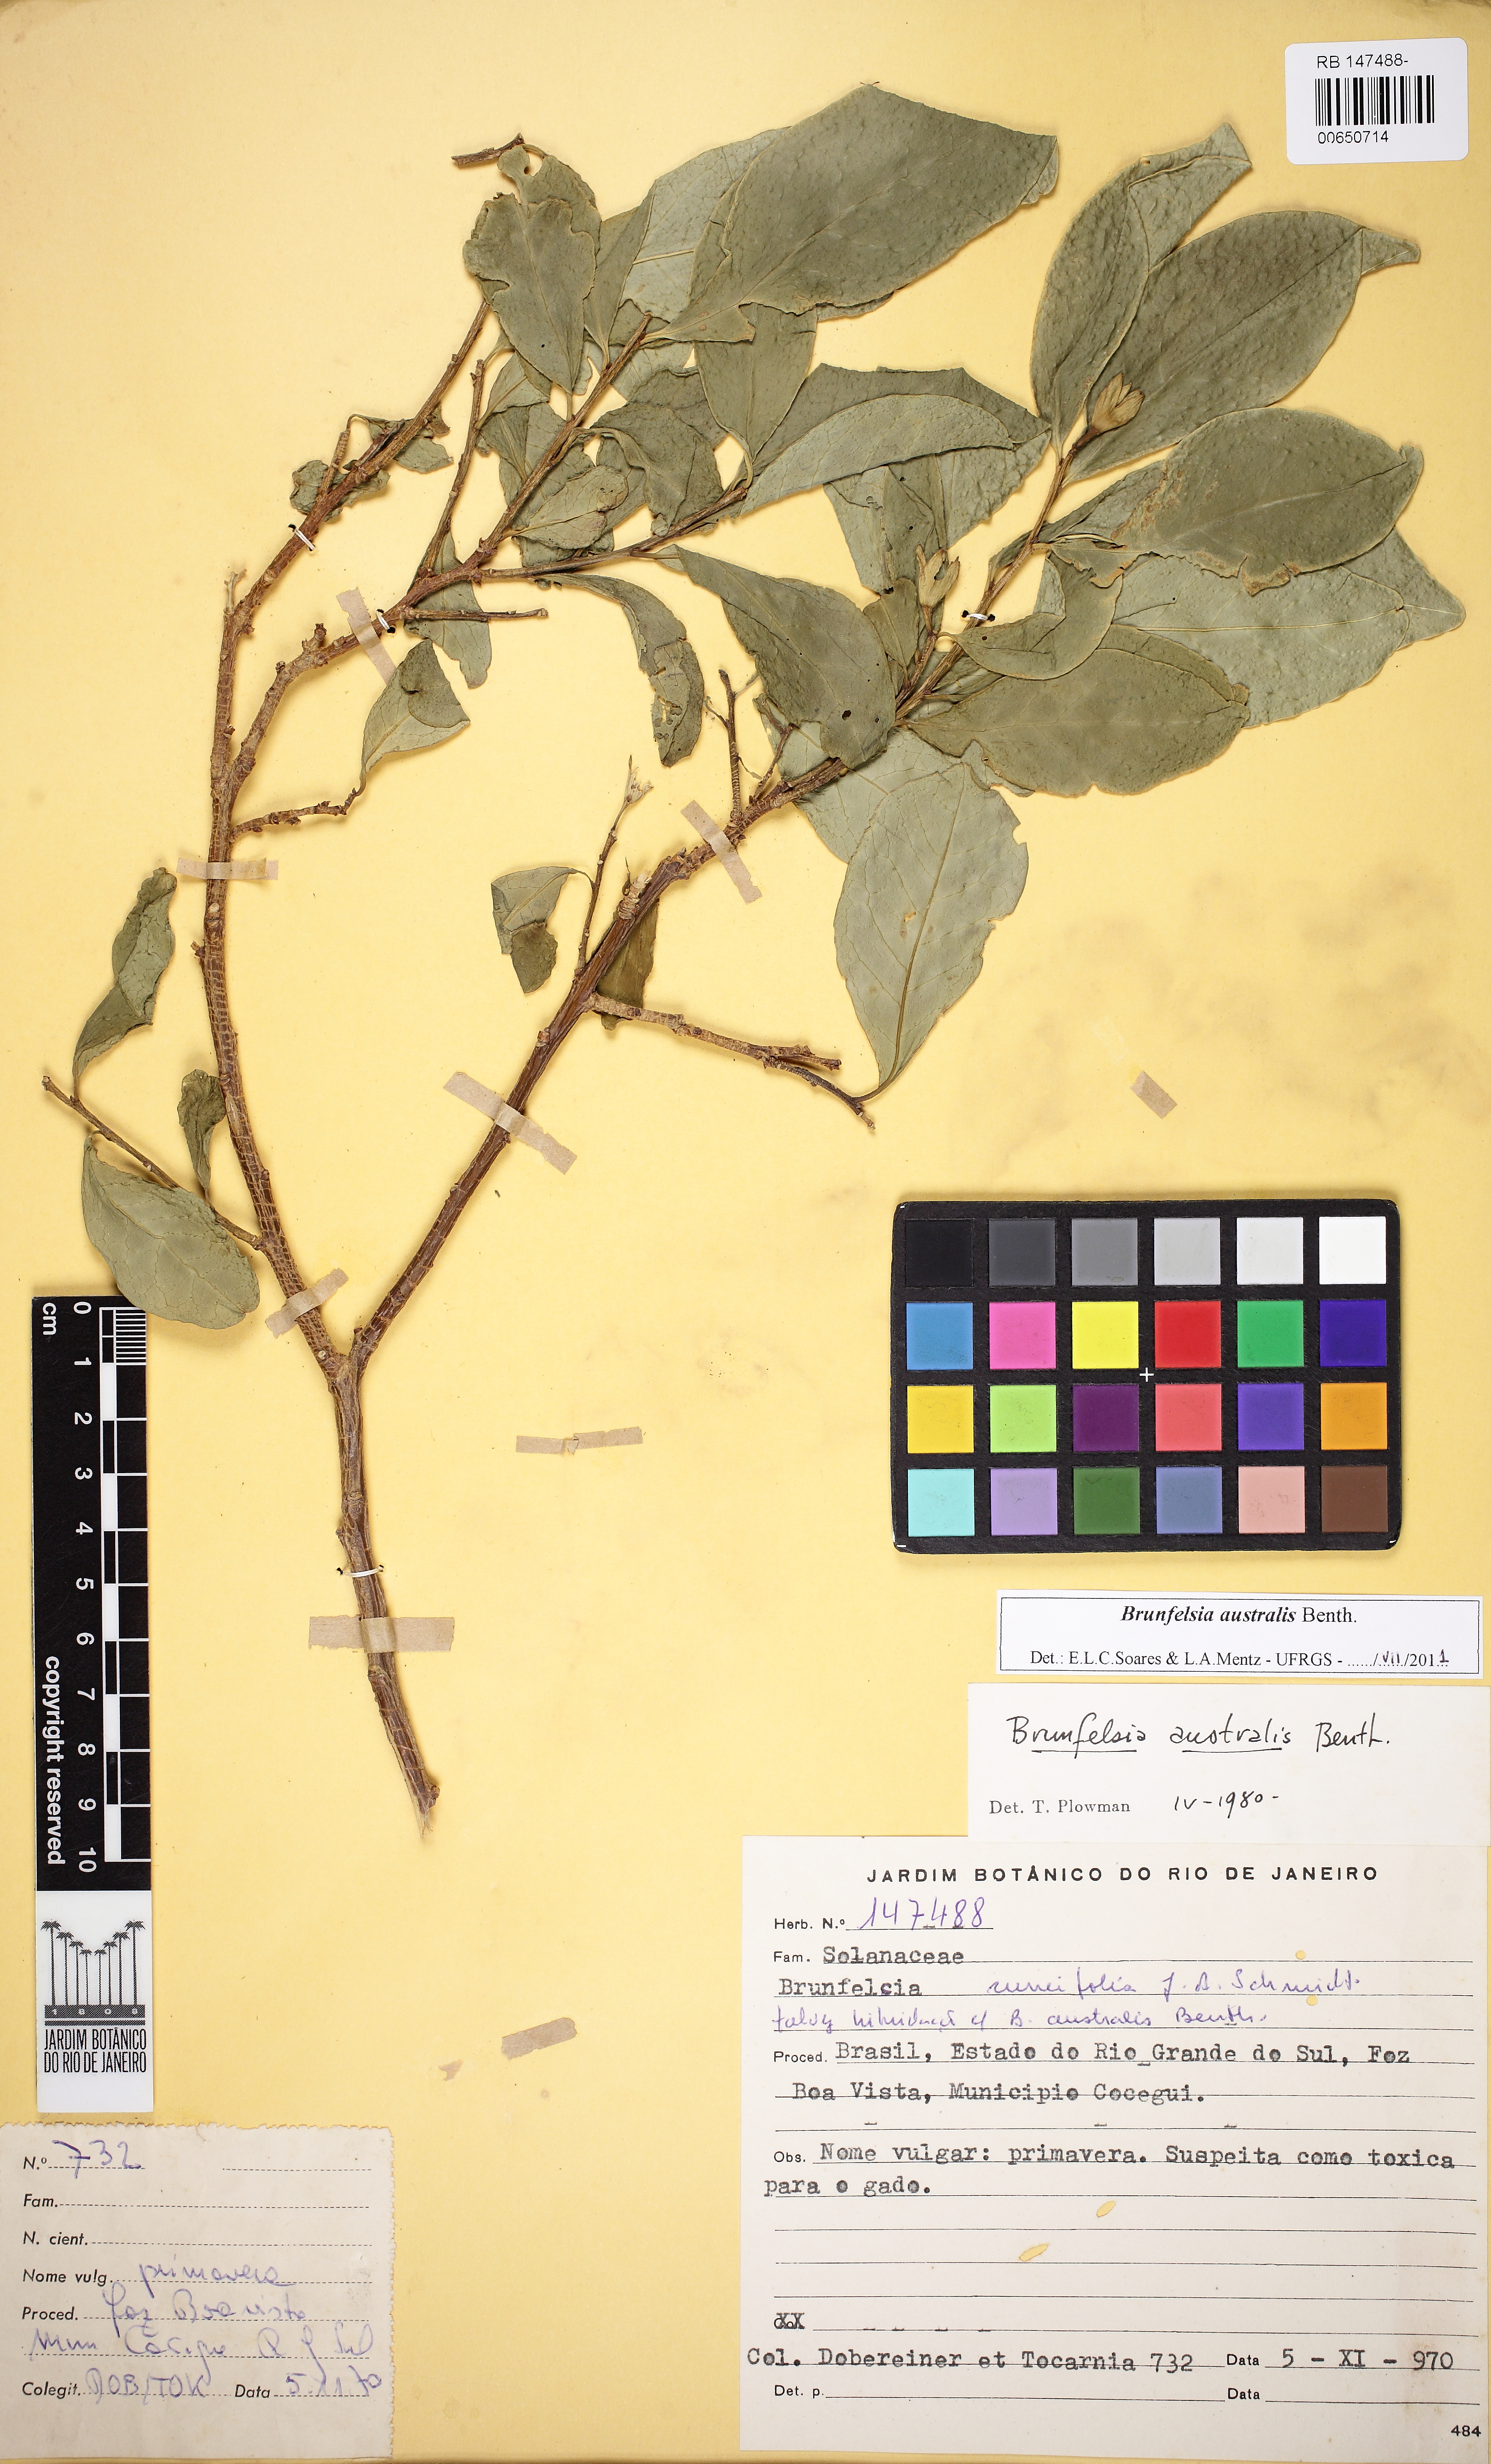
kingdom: Plantae
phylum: Tracheophyta
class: Magnoliopsida
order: Solanales
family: Solanaceae
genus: Brunfelsia
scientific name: Brunfelsia australis
